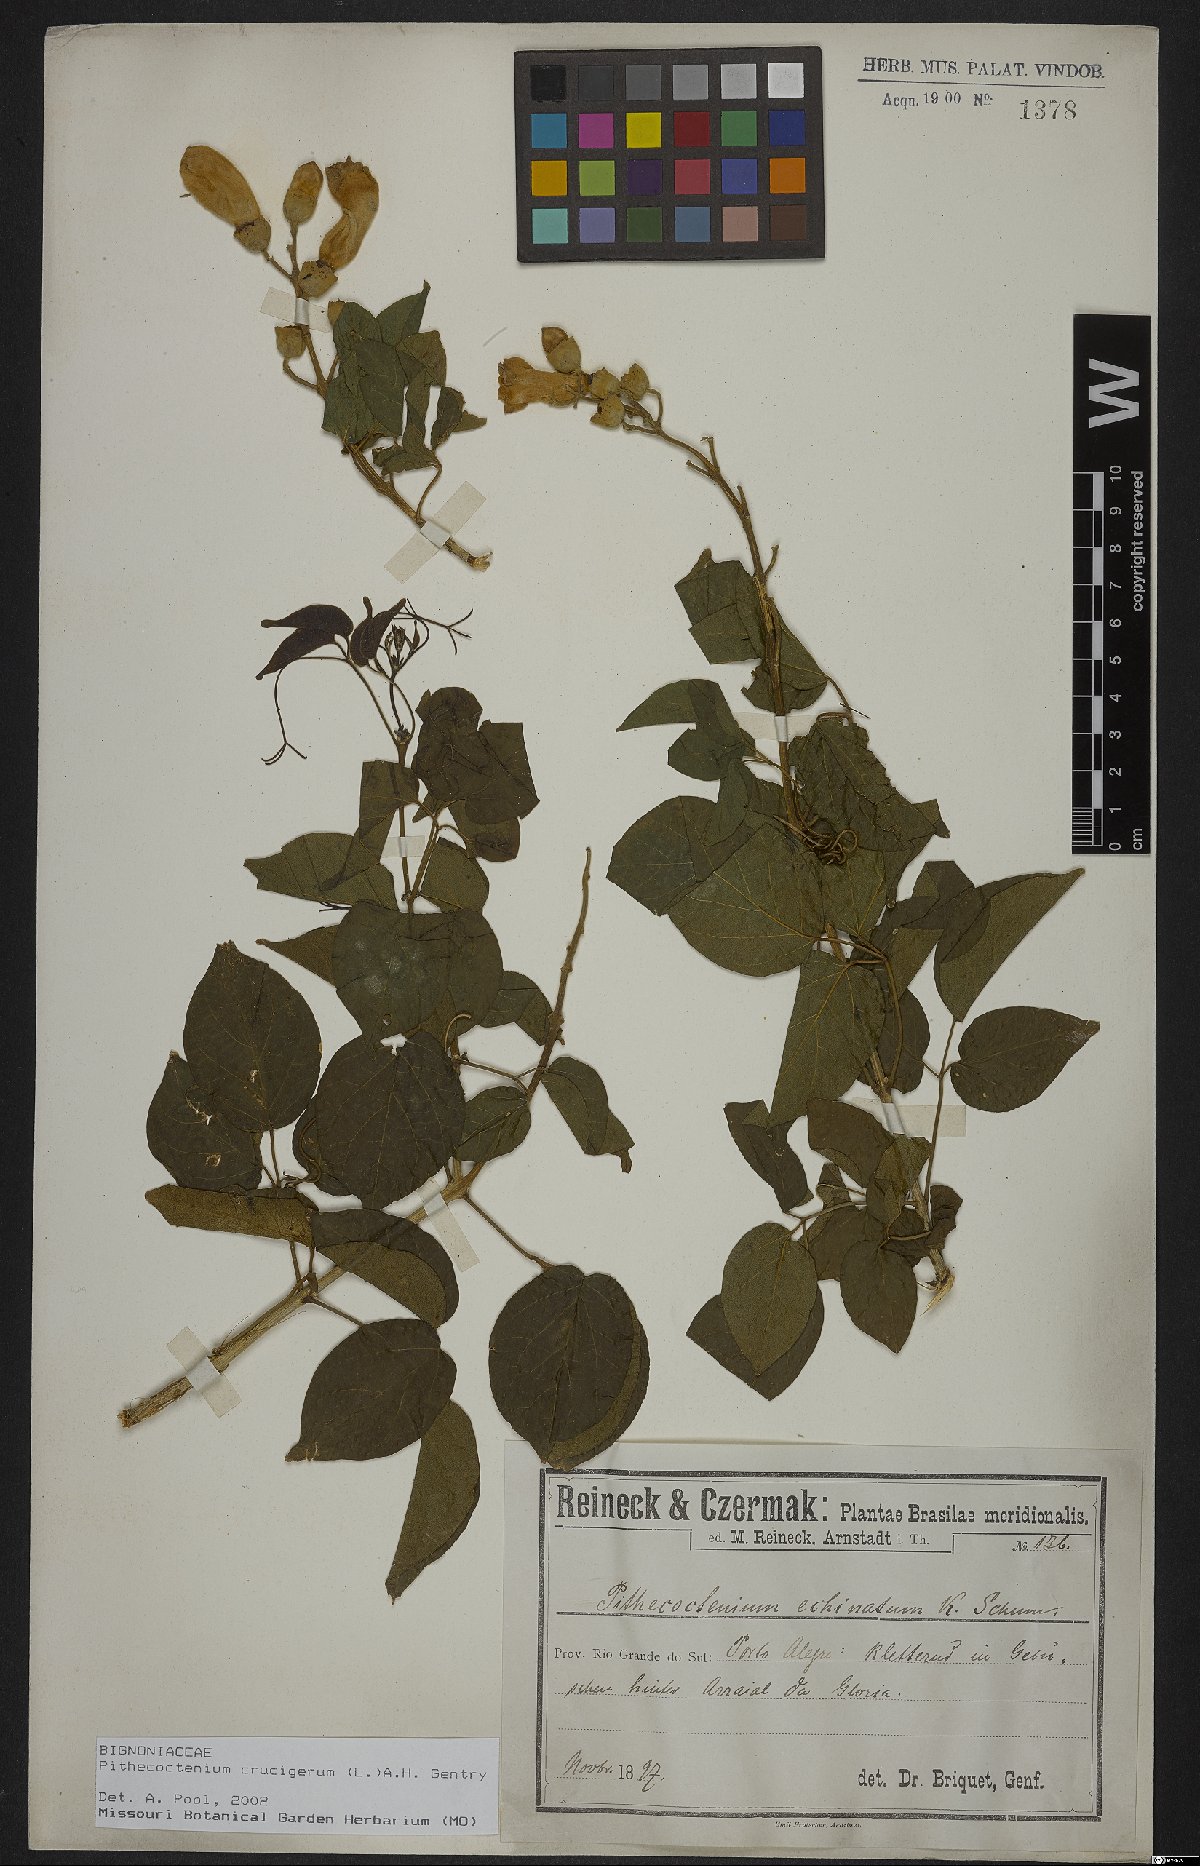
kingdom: Plantae
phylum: Tracheophyta
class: Magnoliopsida
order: Lamiales
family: Bignoniaceae
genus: Amphilophium
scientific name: Amphilophium crucigerum
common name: Monkey comb
